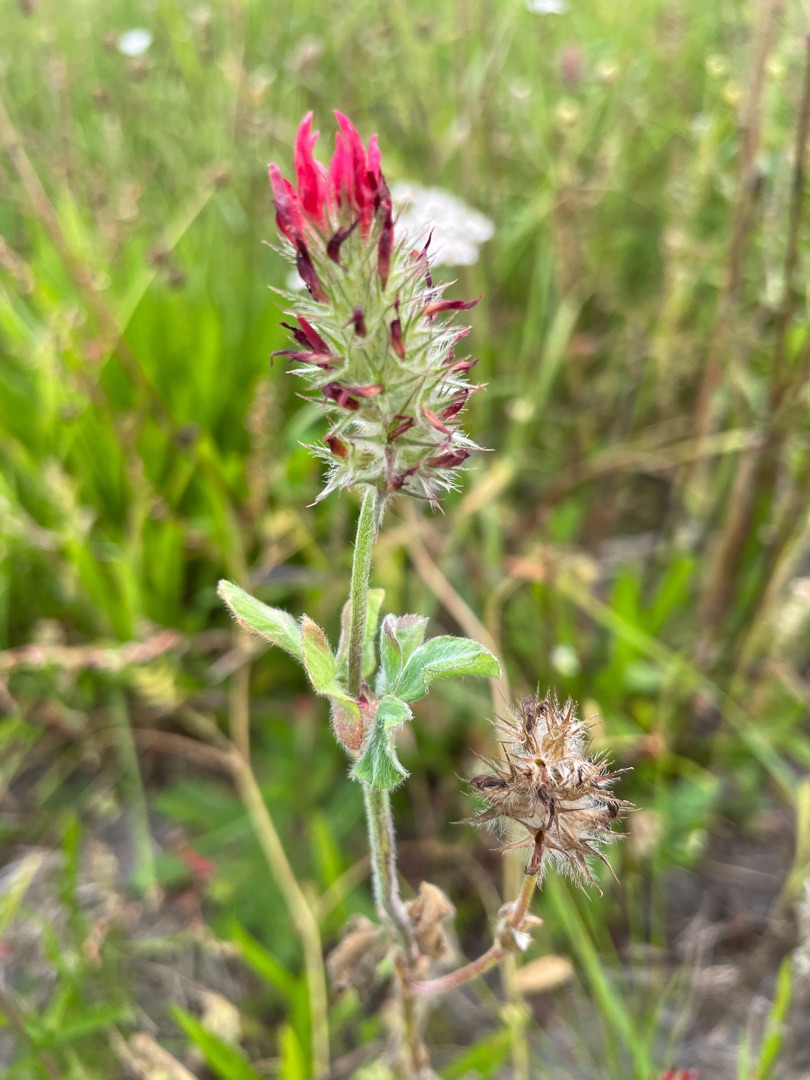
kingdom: Plantae
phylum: Tracheophyta
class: Magnoliopsida
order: Fabales
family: Fabaceae
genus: Trifolium
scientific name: Trifolium incarnatum
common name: Blod-kløver
